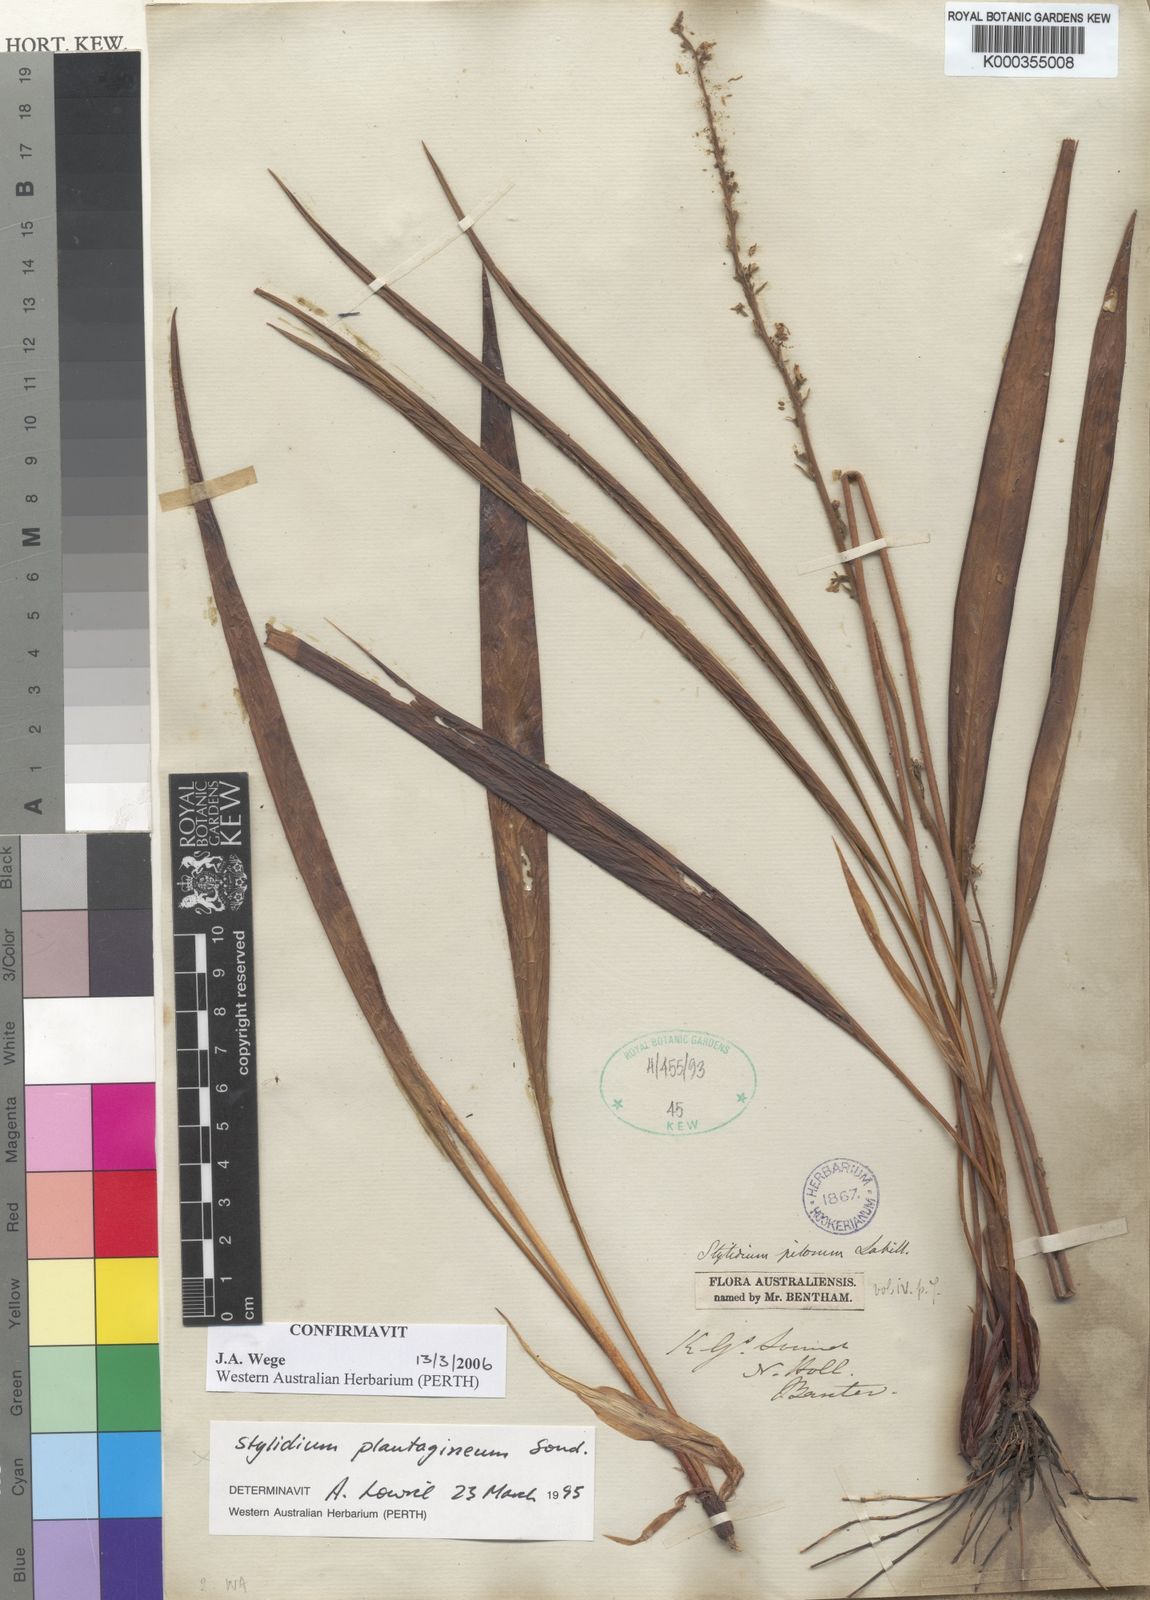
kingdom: Plantae
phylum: Tracheophyta
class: Magnoliopsida
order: Asterales
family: Stylidiaceae
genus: Stylidium
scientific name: Stylidium plantagineum
